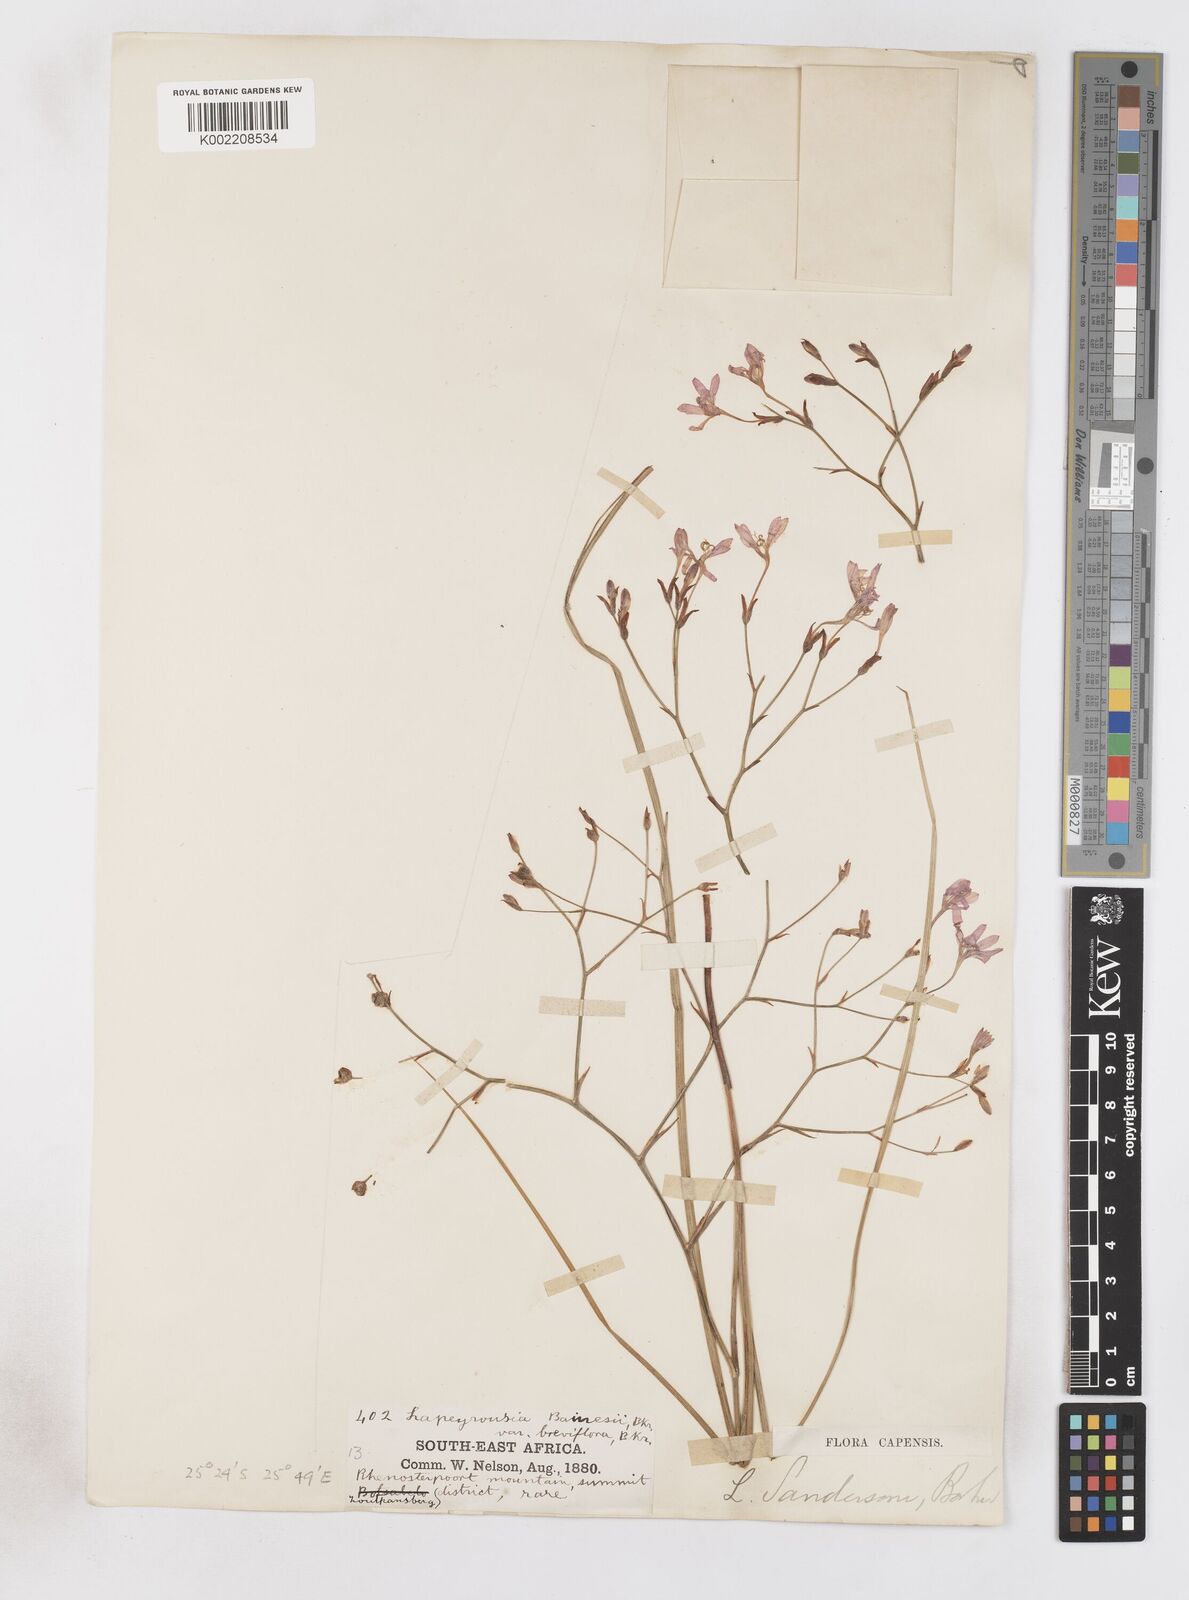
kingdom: Plantae
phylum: Tracheophyta
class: Liliopsida
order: Asparagales
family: Iridaceae
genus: Afrosolen
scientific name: Afrosolen sandersonii
